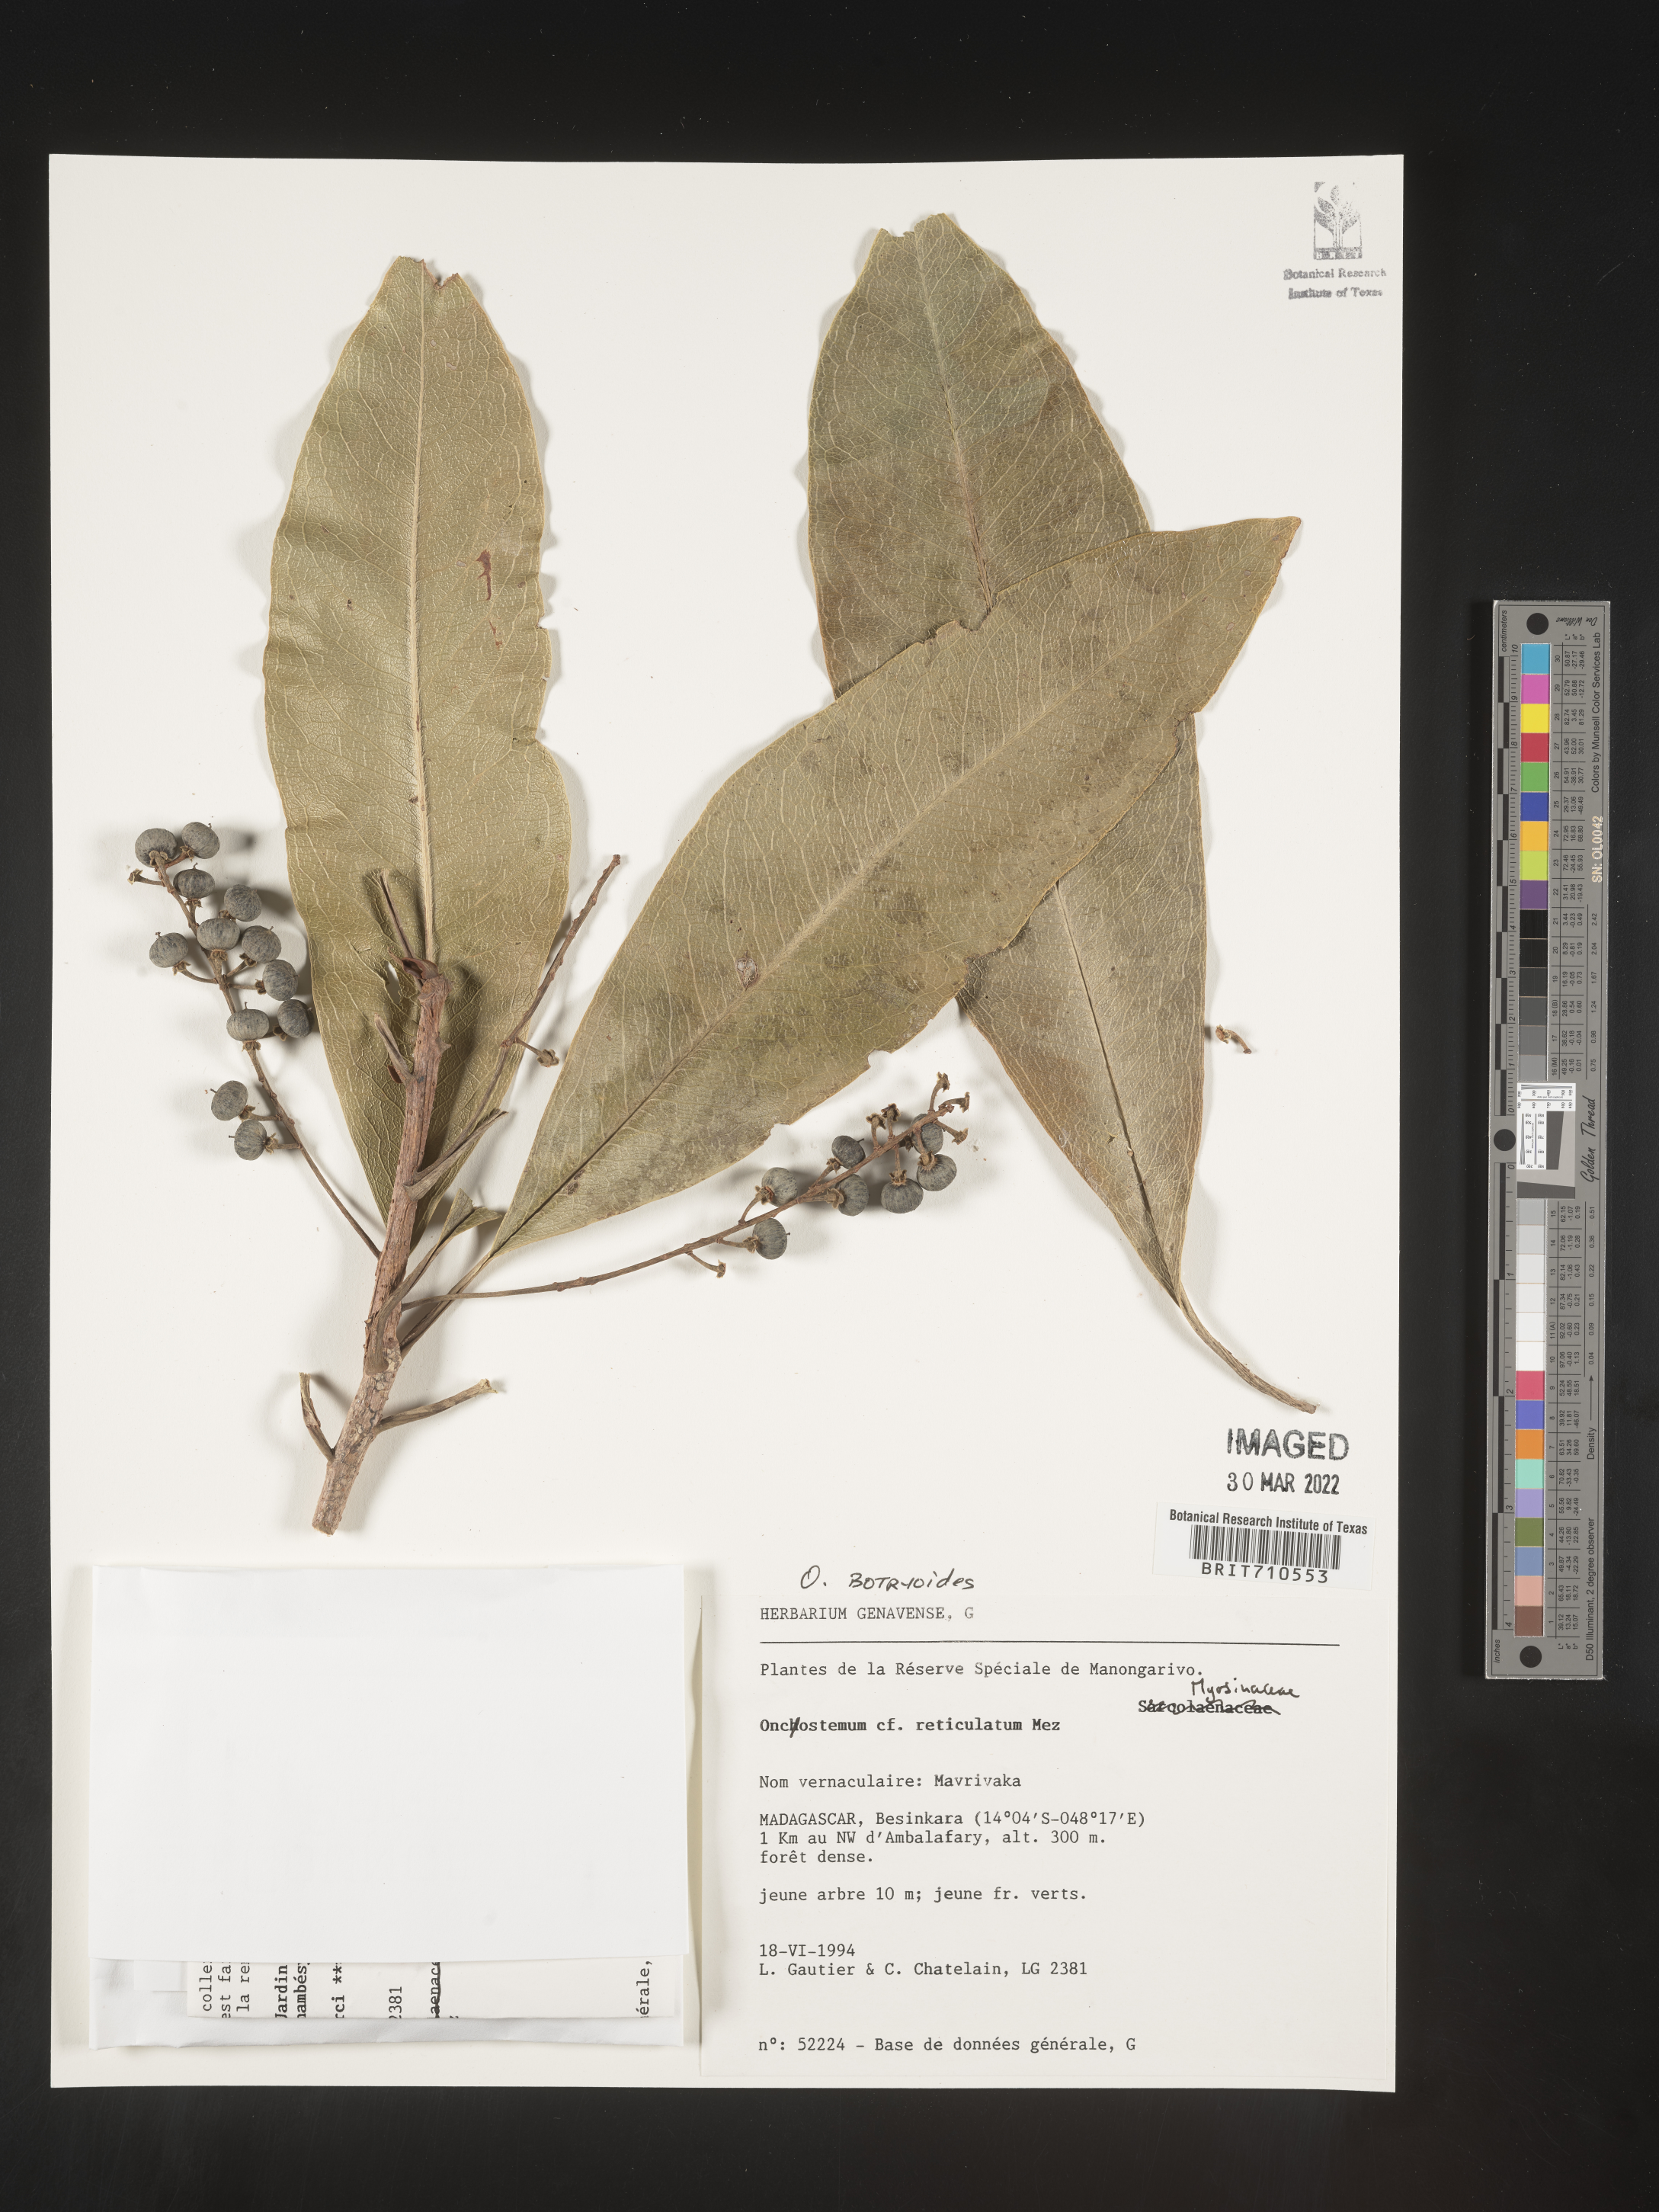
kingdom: Plantae
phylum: Tracheophyta
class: Magnoliopsida
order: Ericales
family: Primulaceae
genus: Oncostemum
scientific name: Oncostemum
